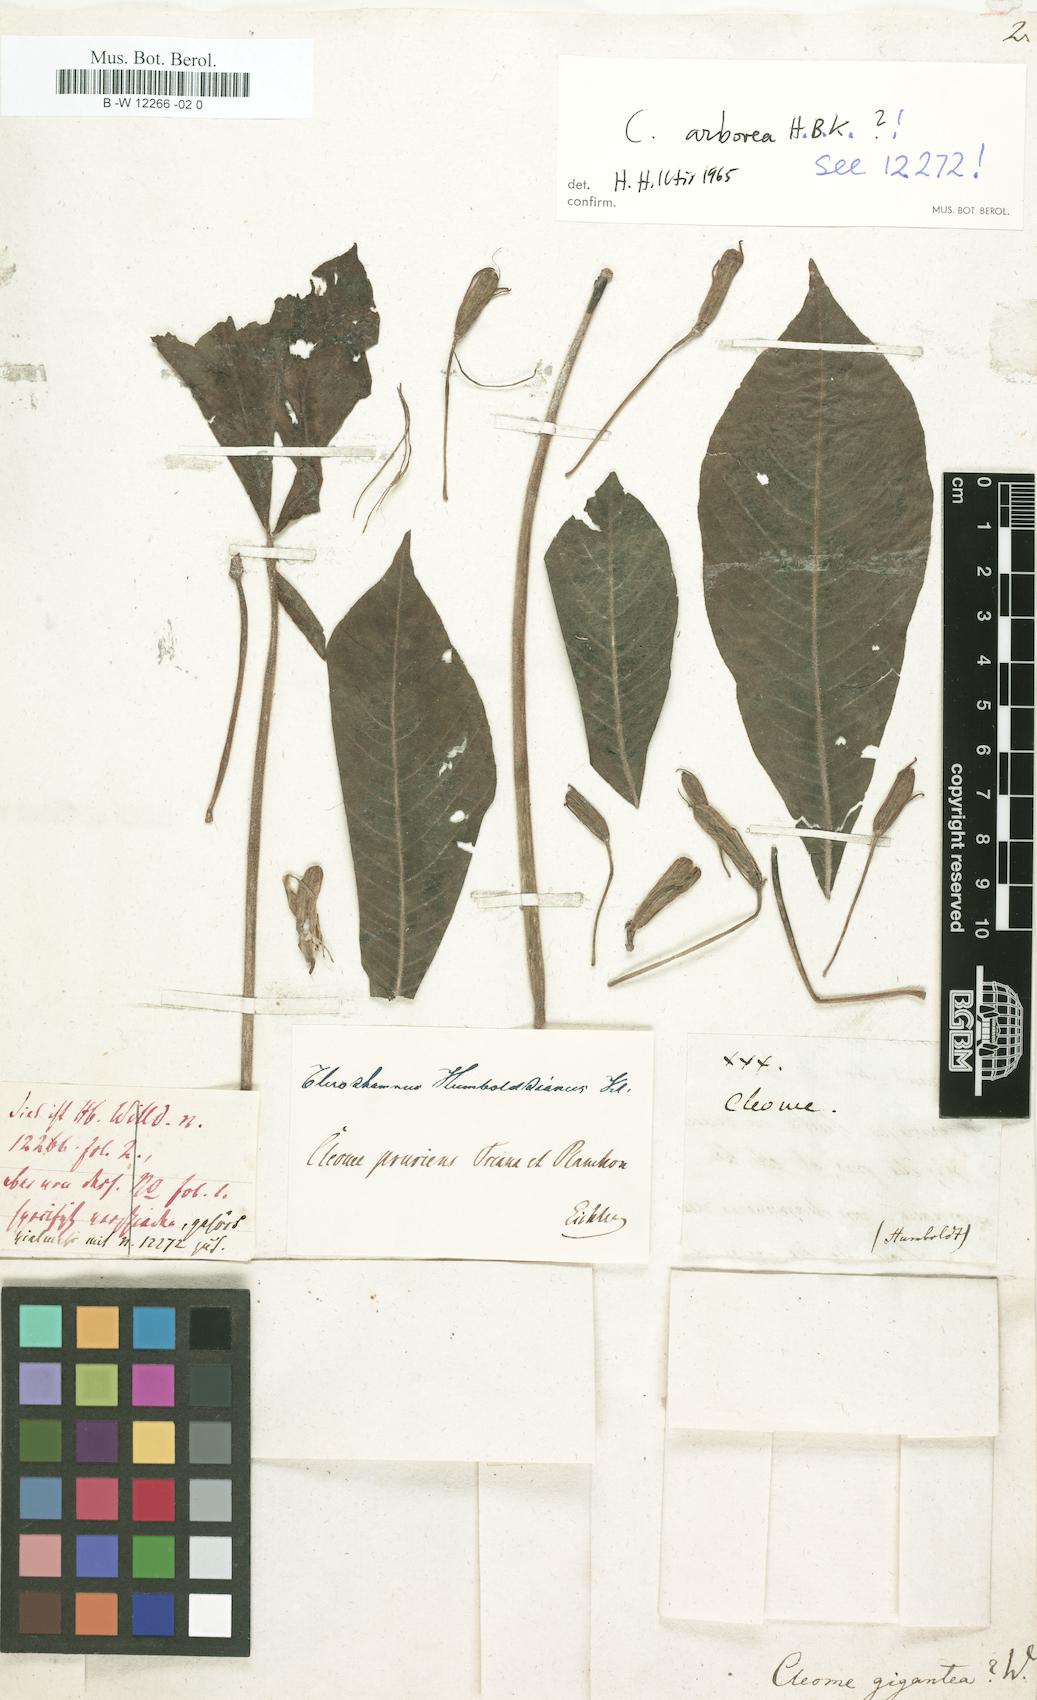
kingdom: Plantae
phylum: Tracheophyta
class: Magnoliopsida
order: Brassicales
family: Cleomaceae
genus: Melidiscus
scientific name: Melidiscus gigantea
